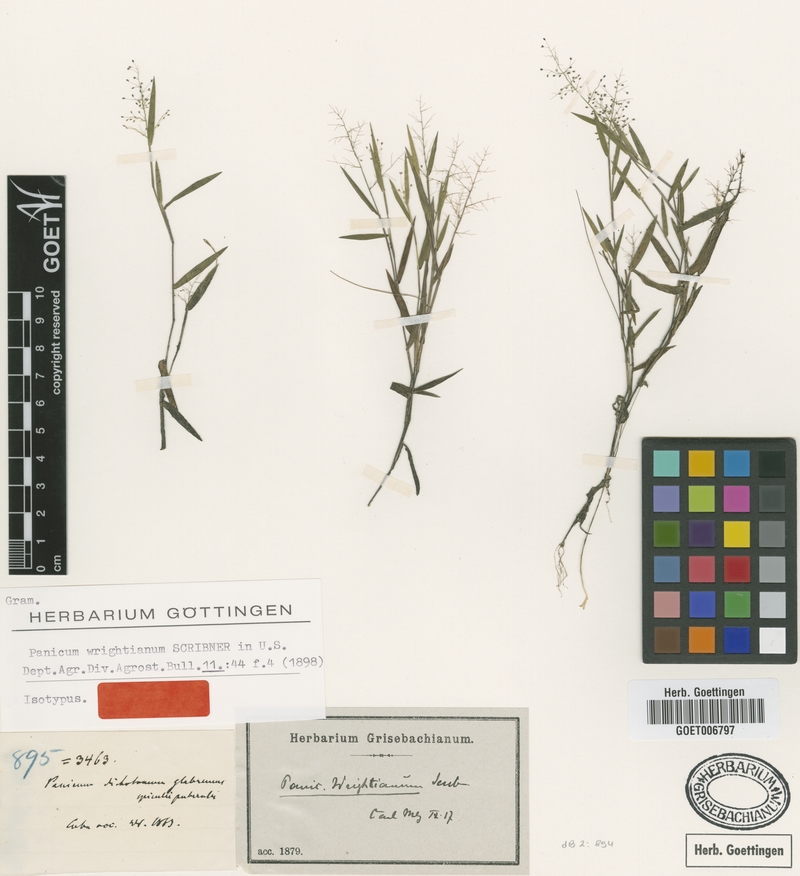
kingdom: Plantae
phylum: Tracheophyta
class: Liliopsida
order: Poales
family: Poaceae
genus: Dichanthelium
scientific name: Dichanthelium wrightianum
